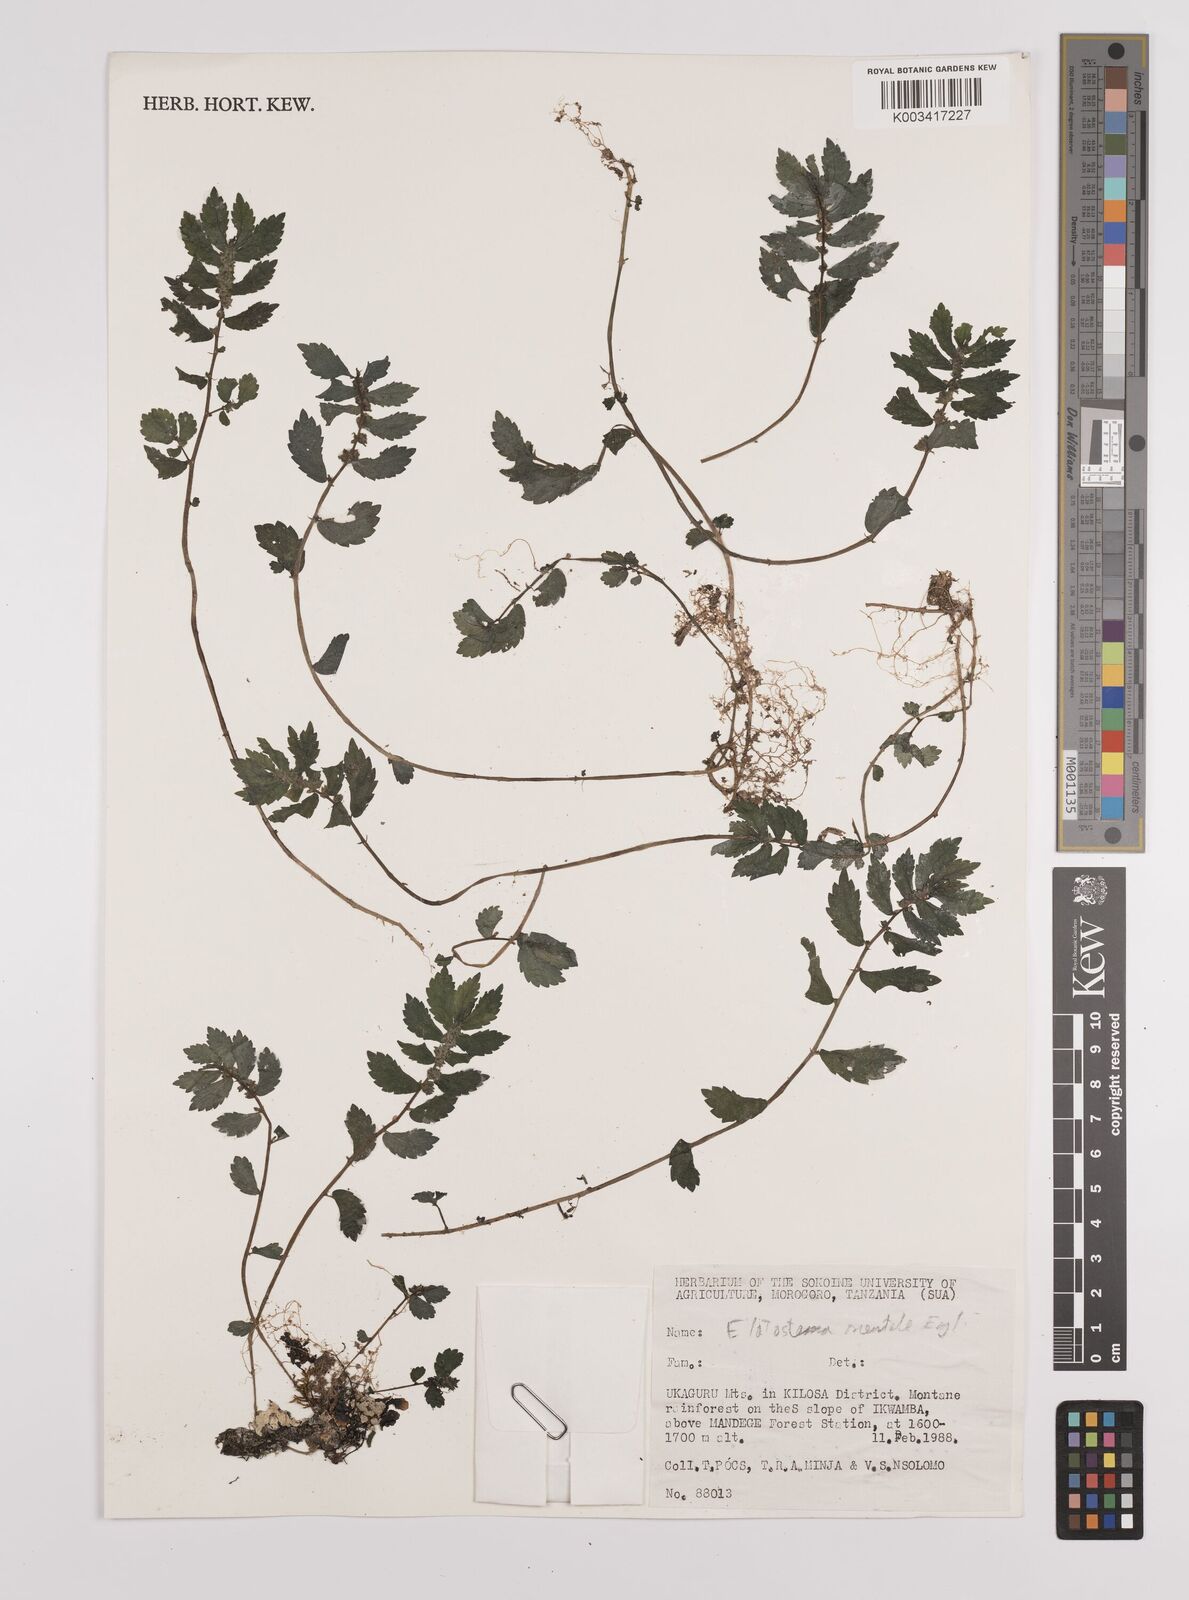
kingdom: Plantae
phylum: Tracheophyta
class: Magnoliopsida
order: Rosales
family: Urticaceae
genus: Elatostema
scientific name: Elatostema monticola
